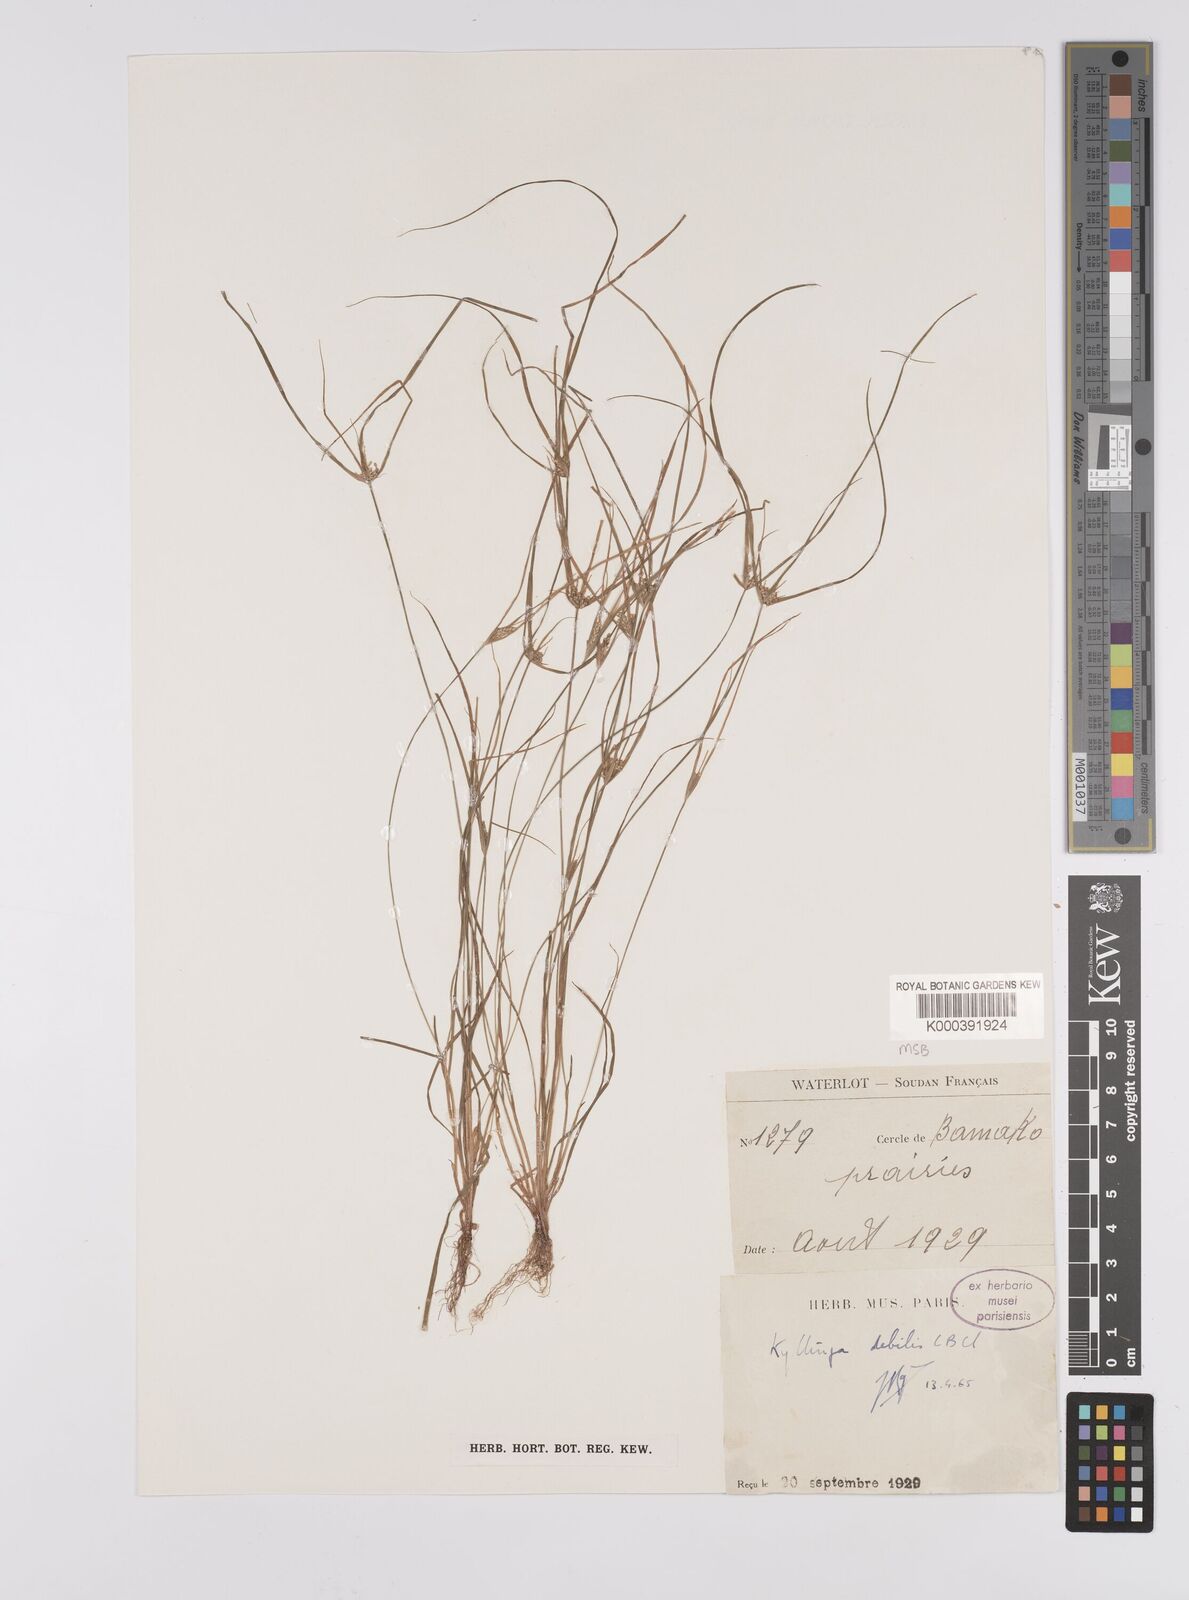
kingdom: Plantae
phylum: Tracheophyta
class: Liliopsida
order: Poales
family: Cyperaceae
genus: Cyperus
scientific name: Cyperus leptorhachis
